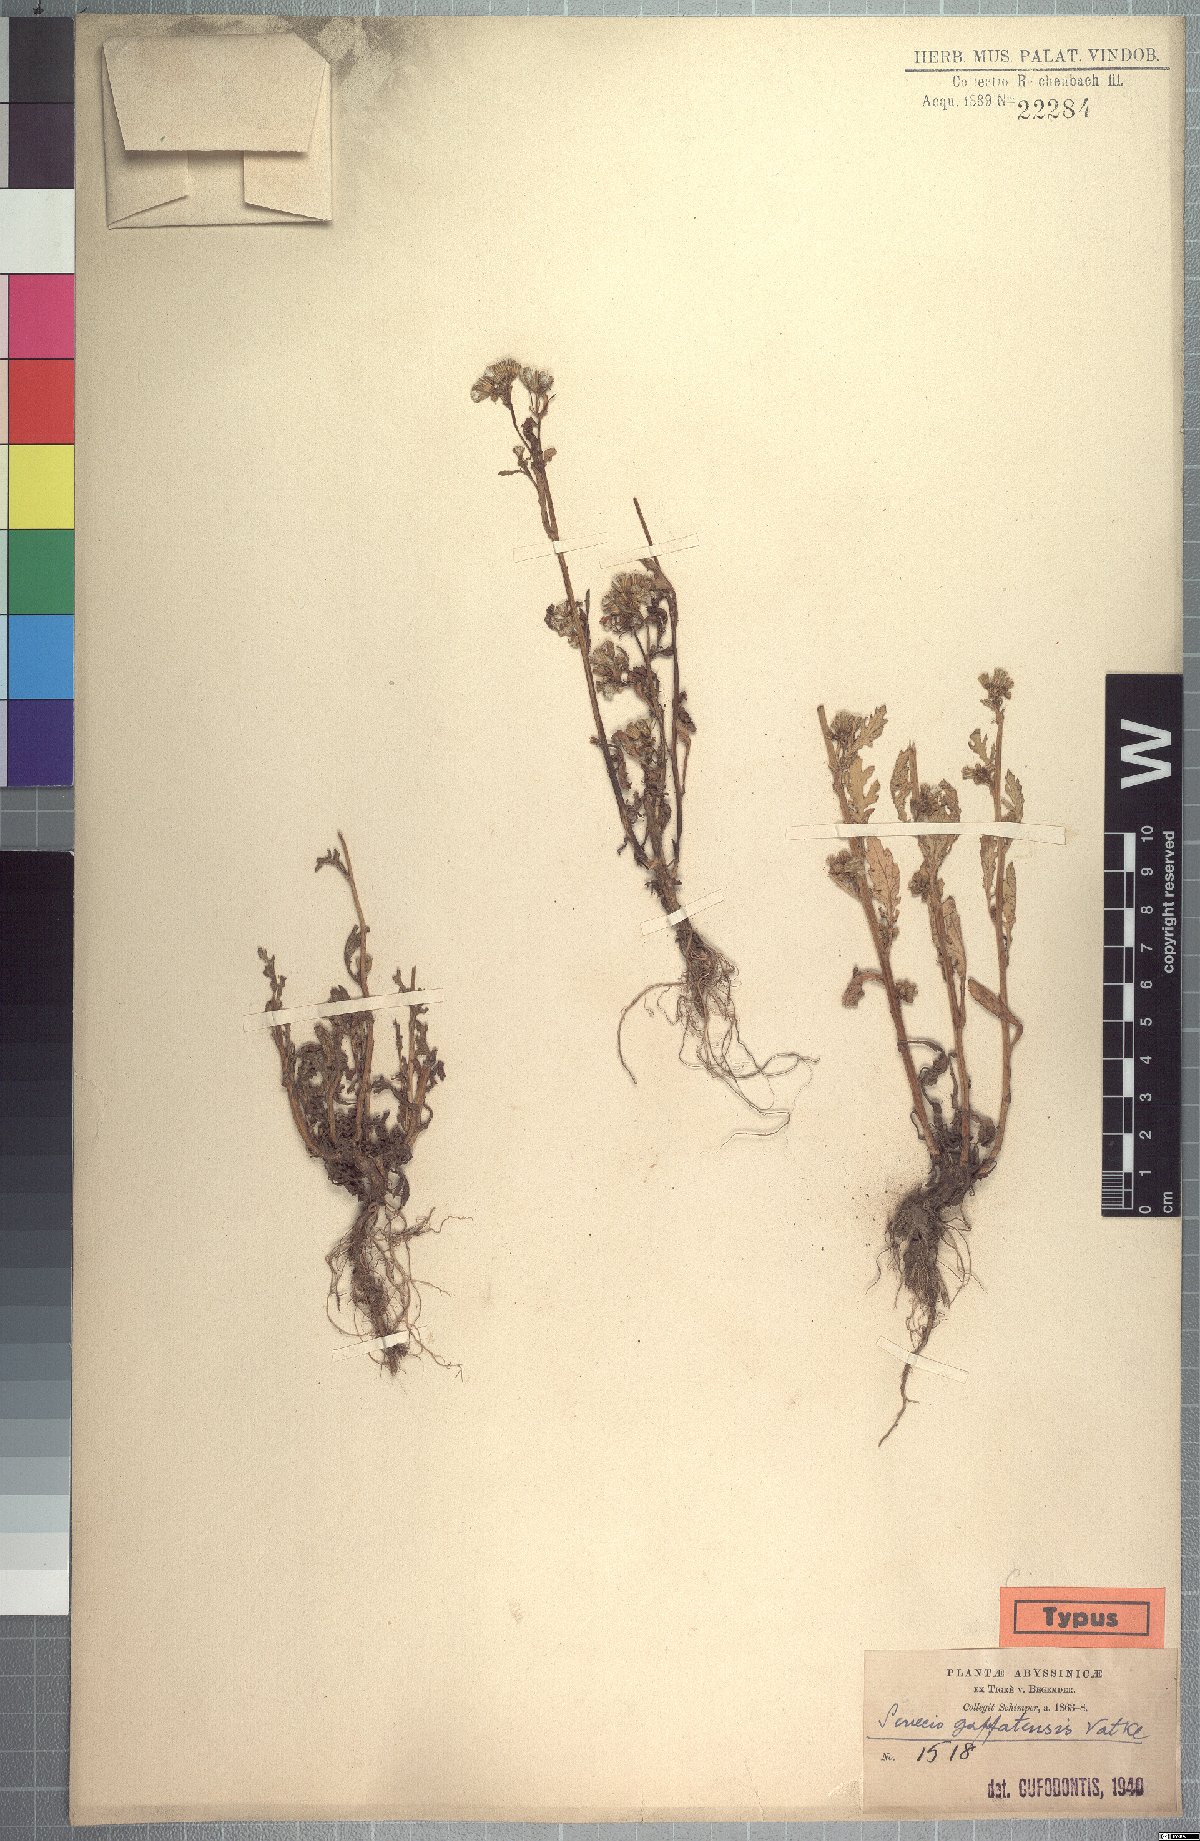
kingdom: Plantae
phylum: Tracheophyta
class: Magnoliopsida
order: Asterales
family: Asteraceae
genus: Senecio
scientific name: Senecio aegyptius
